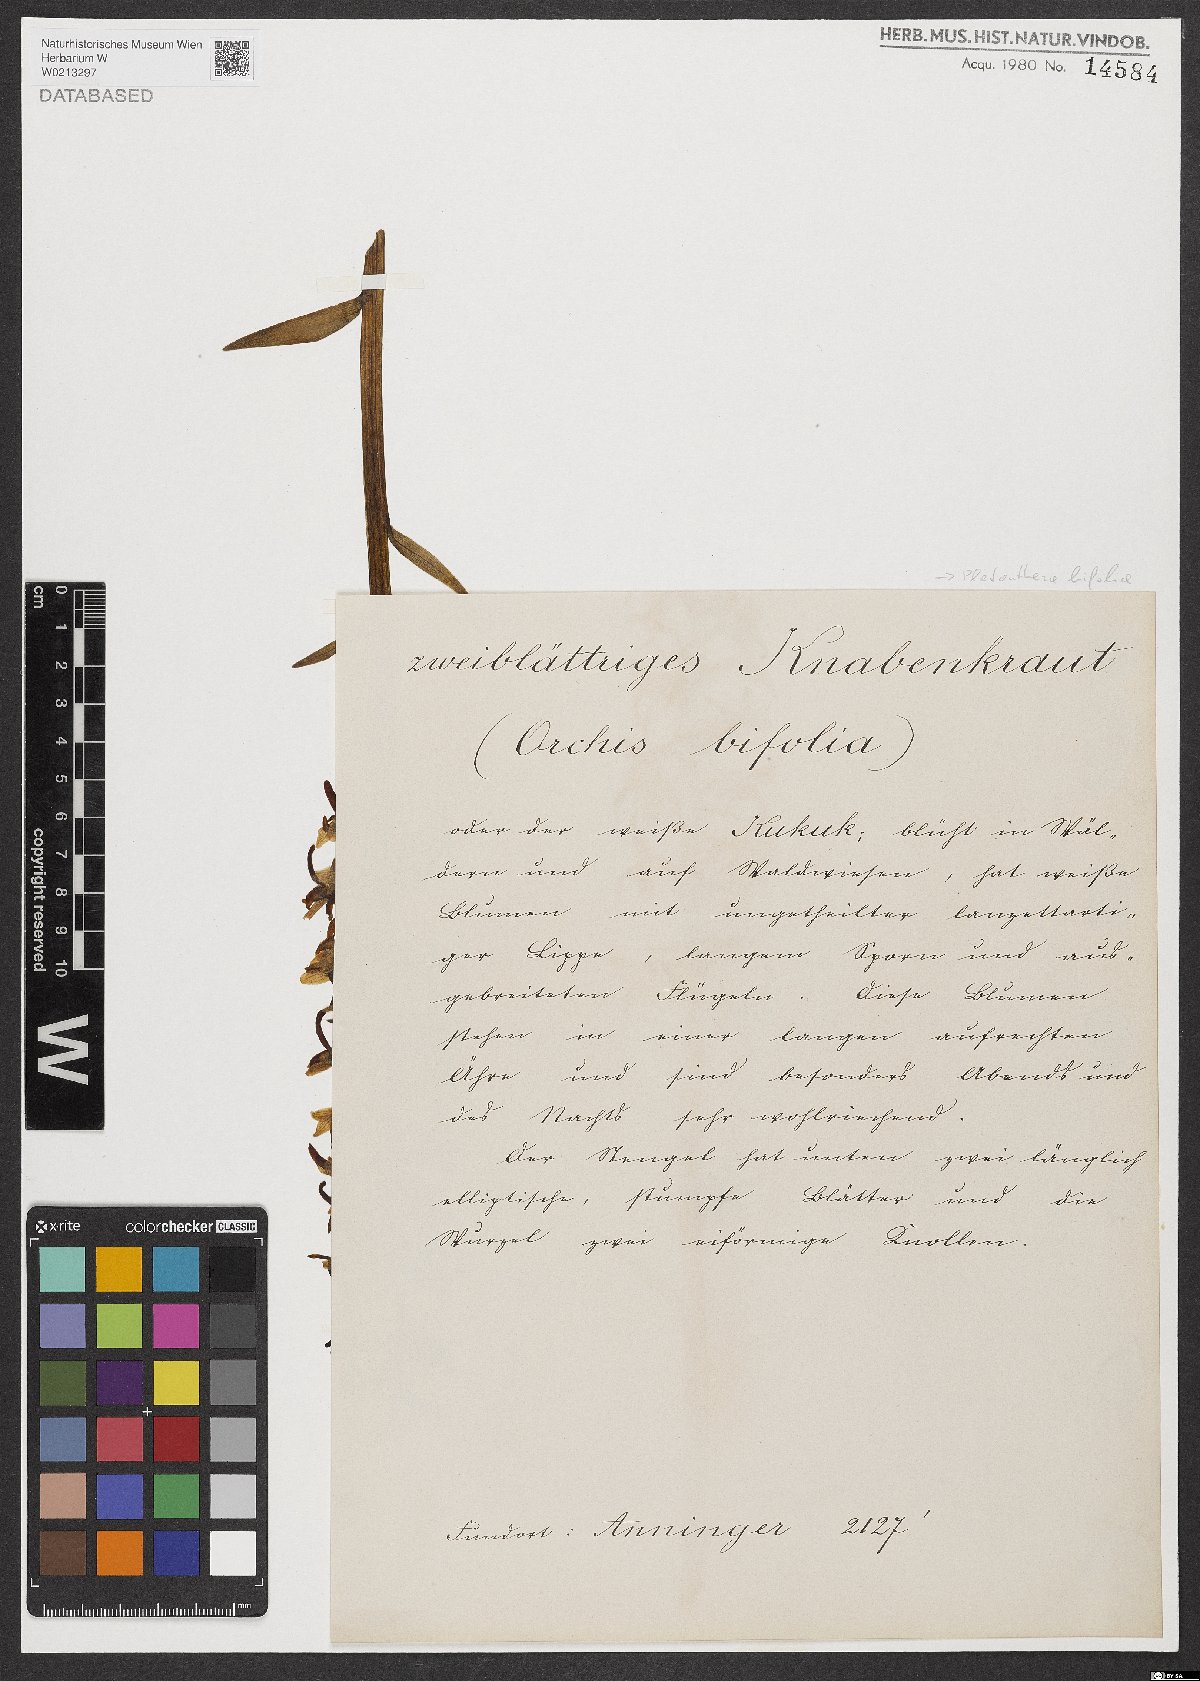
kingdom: Plantae
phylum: Tracheophyta
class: Liliopsida
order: Asparagales
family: Orchidaceae
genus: Platanthera
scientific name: Platanthera bifolia
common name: Lesser butterfly-orchid
